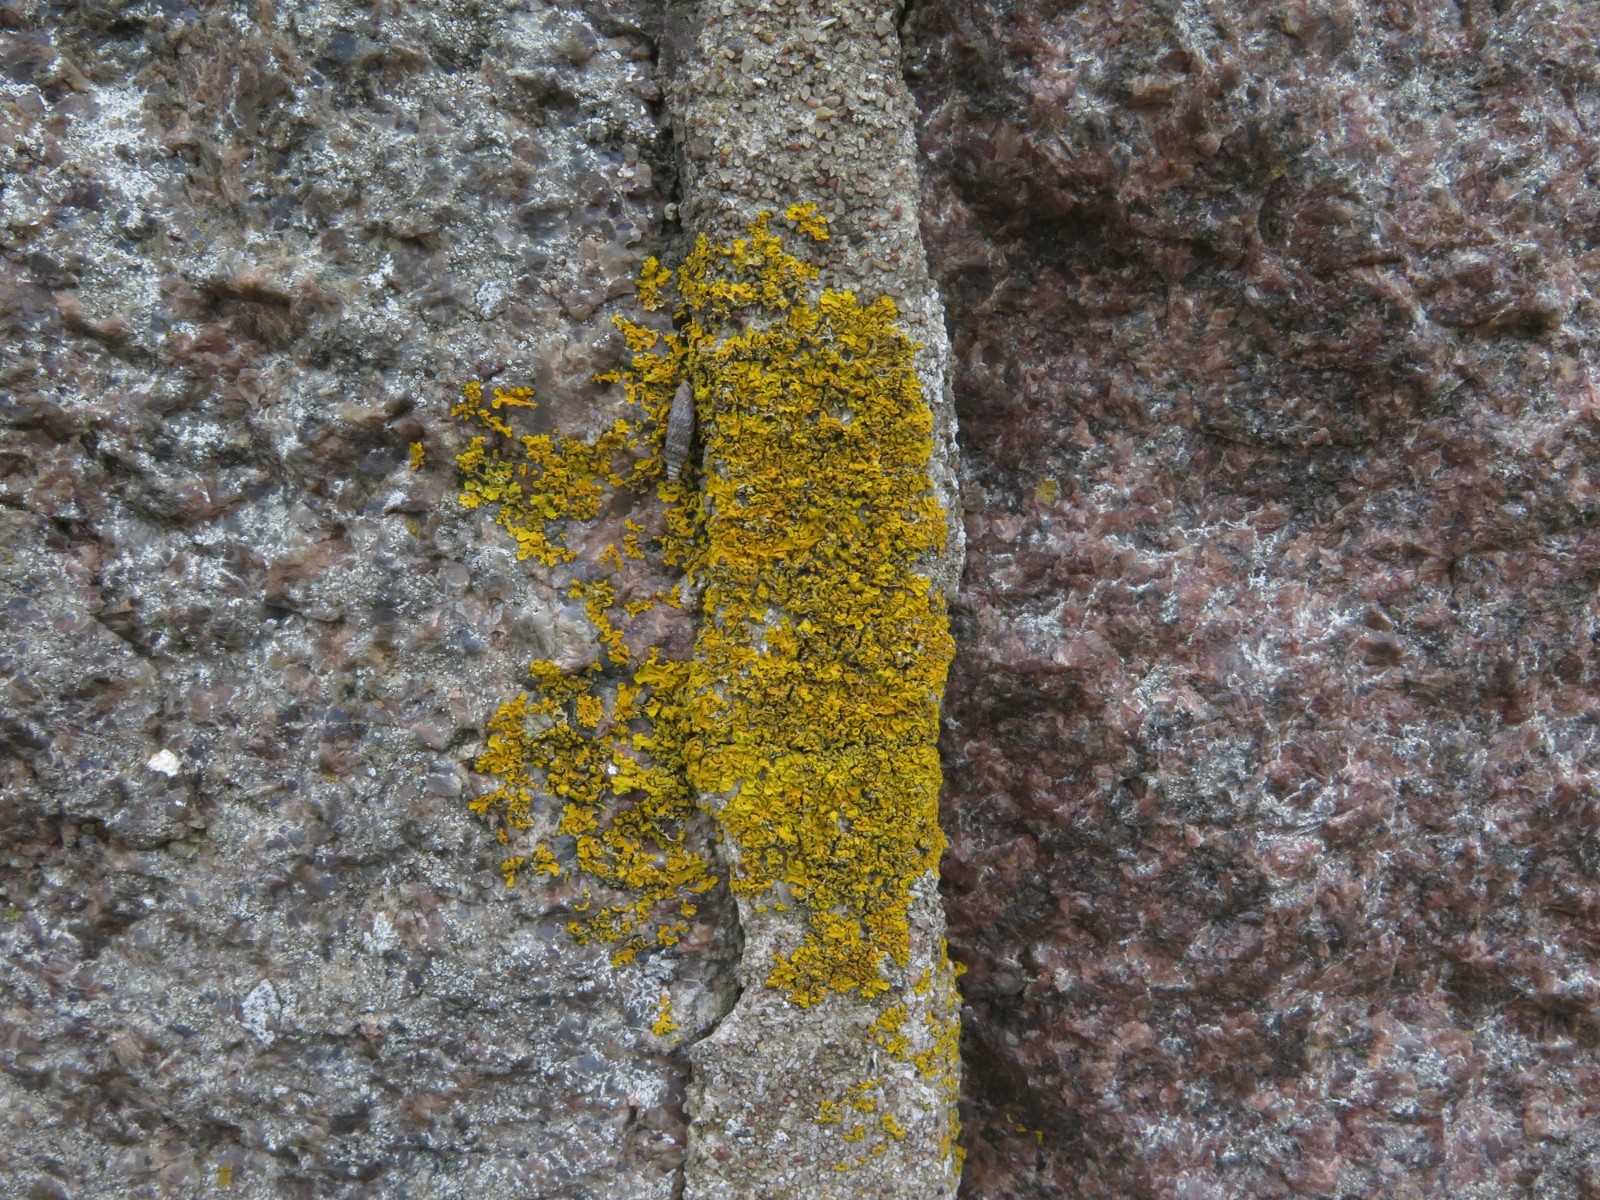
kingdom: Fungi
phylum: Ascomycota
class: Lecanoromycetes
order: Teloschistales
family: Teloschistaceae
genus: Xanthoria
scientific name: Xanthoria
